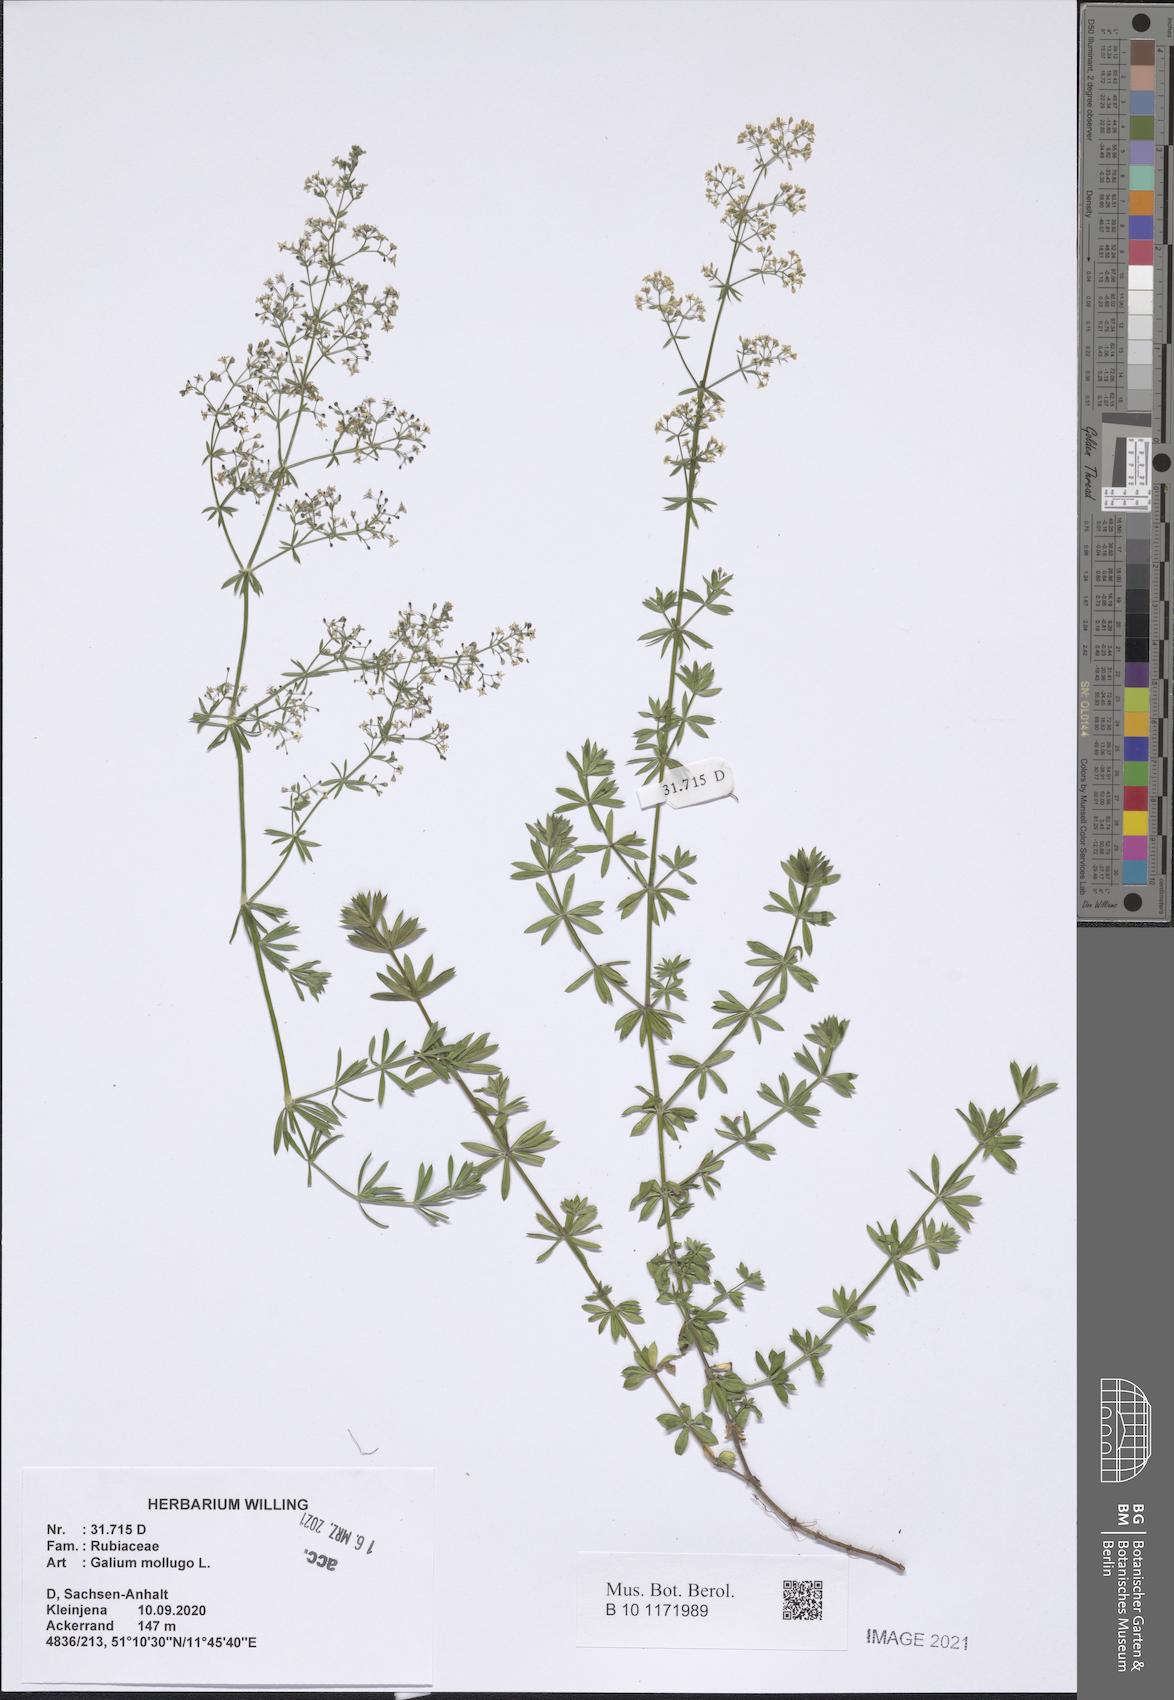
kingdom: Plantae
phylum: Tracheophyta
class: Magnoliopsida
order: Gentianales
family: Rubiaceae
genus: Galium
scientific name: Galium mollugo
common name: Hedge bedstraw
